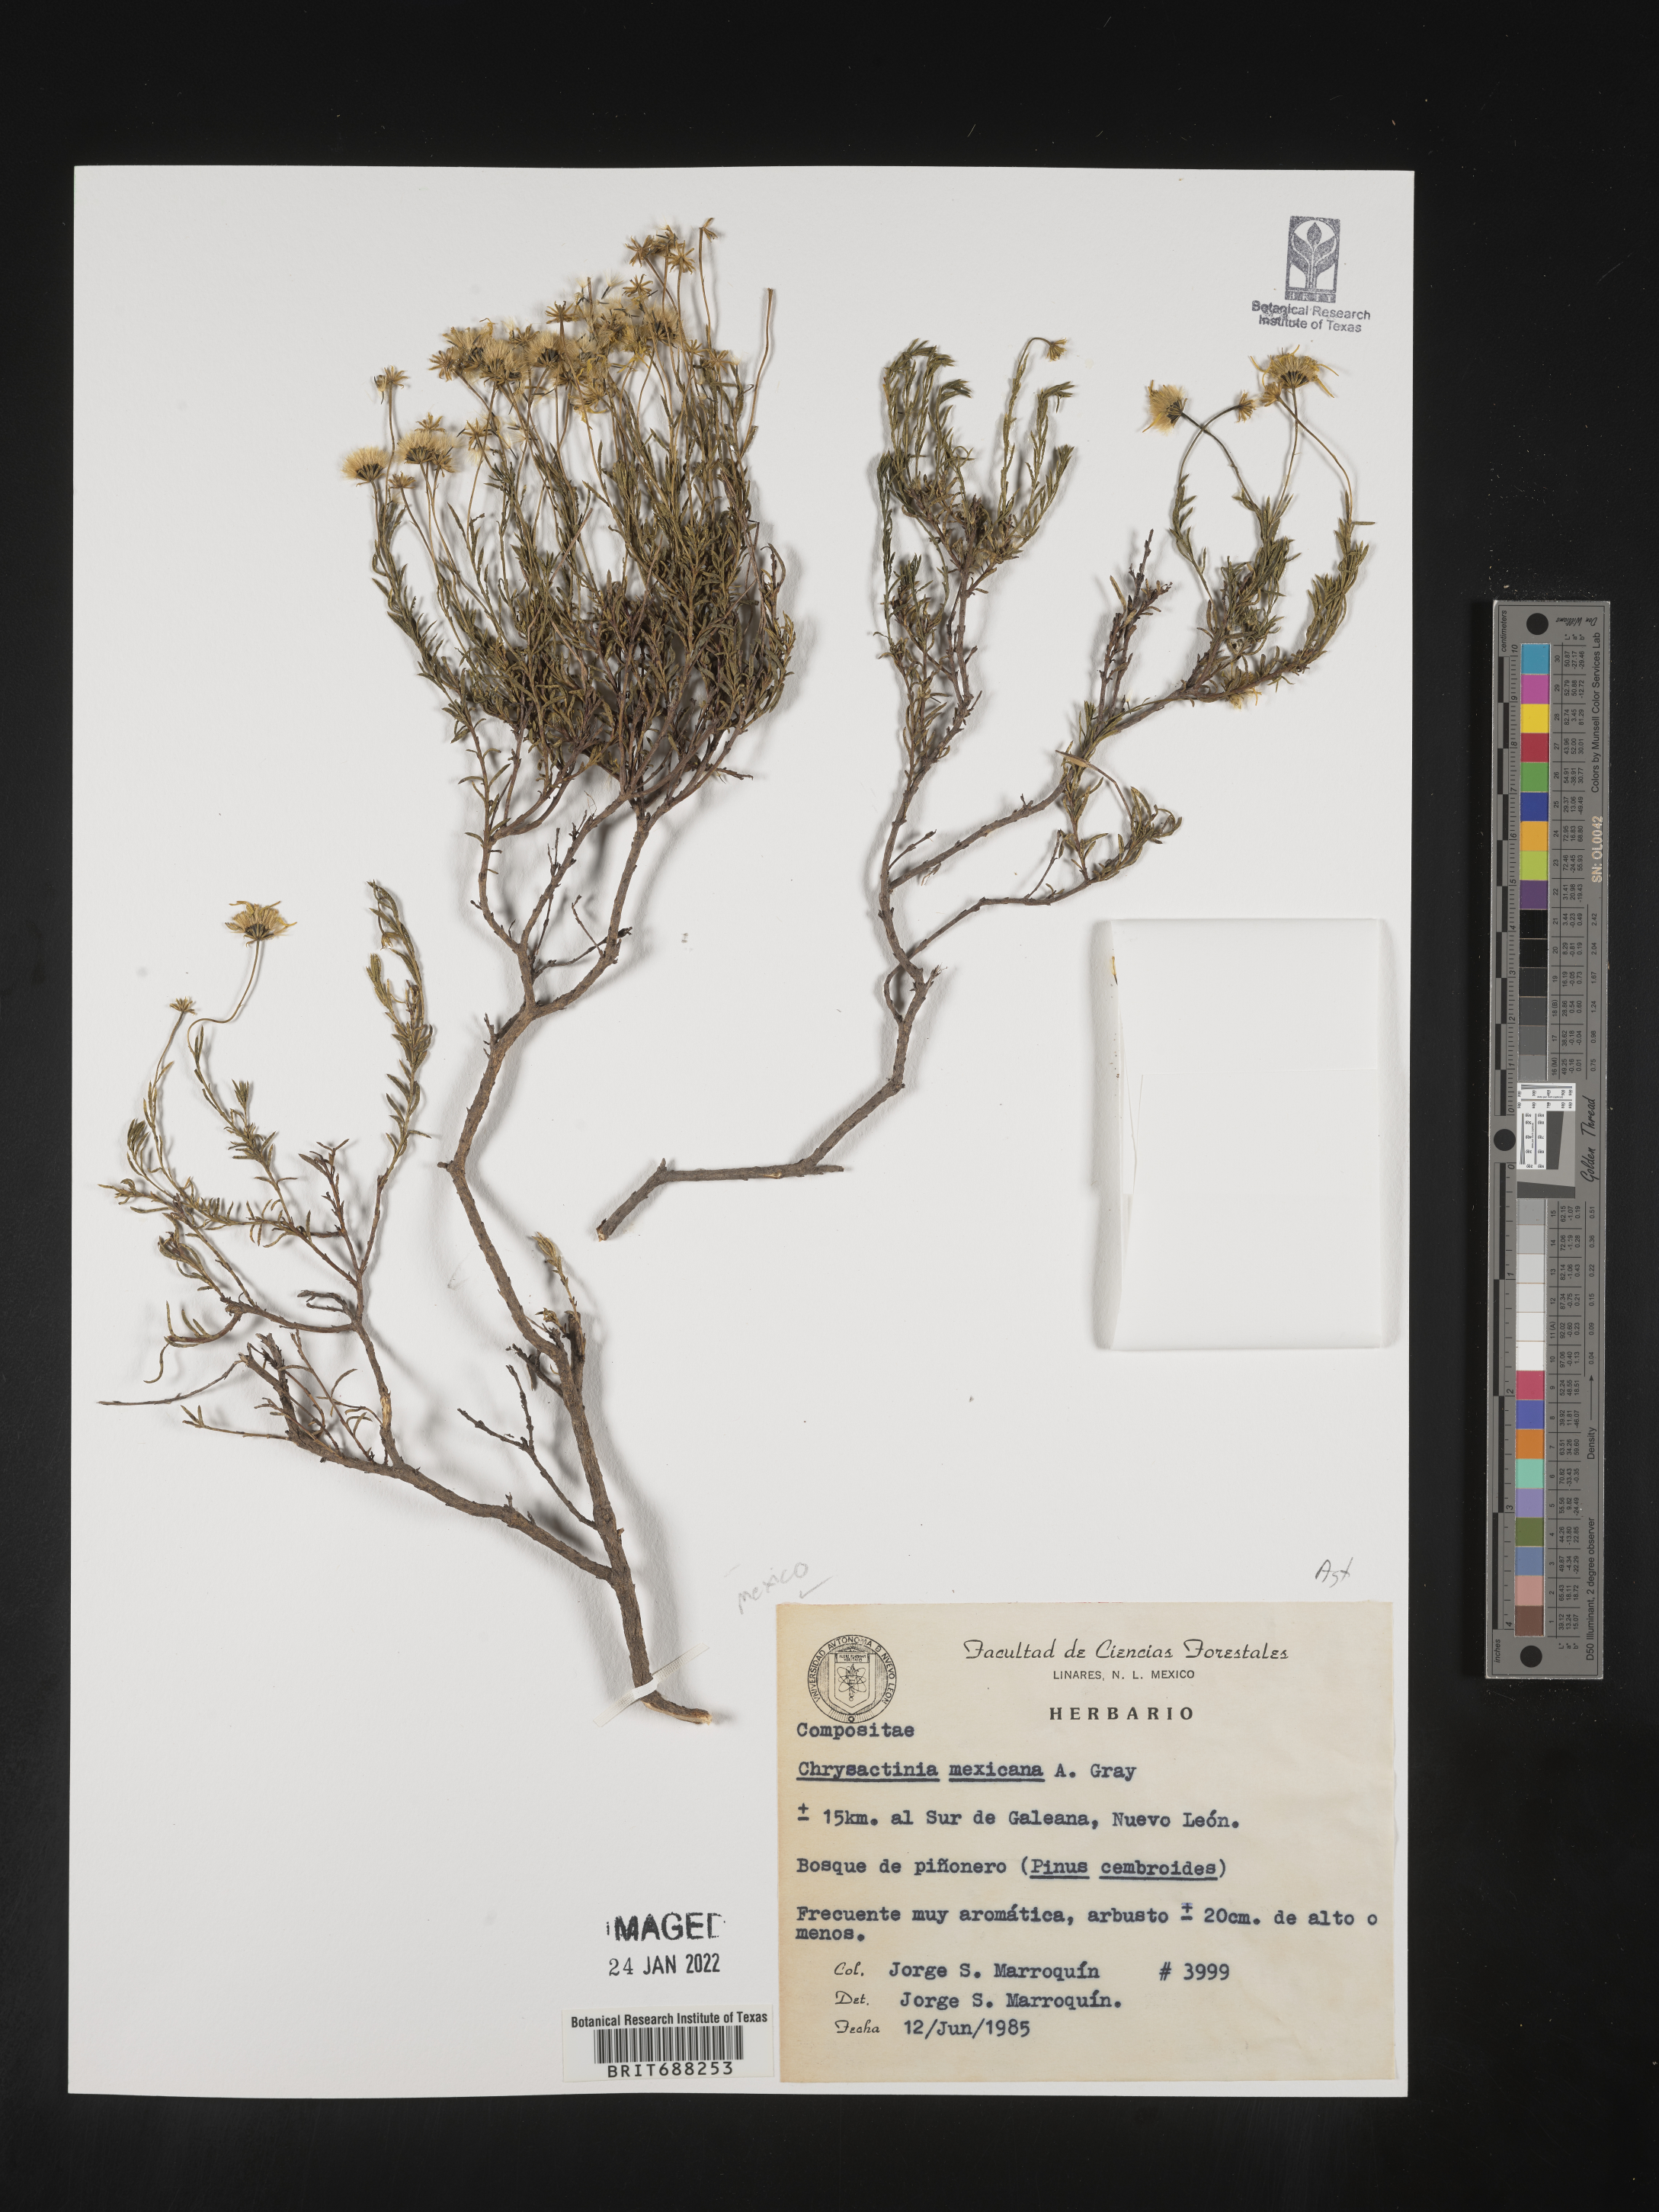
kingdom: Plantae
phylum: Tracheophyta
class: Magnoliopsida
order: Asterales
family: Asteraceae
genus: Chrysactinia
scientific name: Chrysactinia
